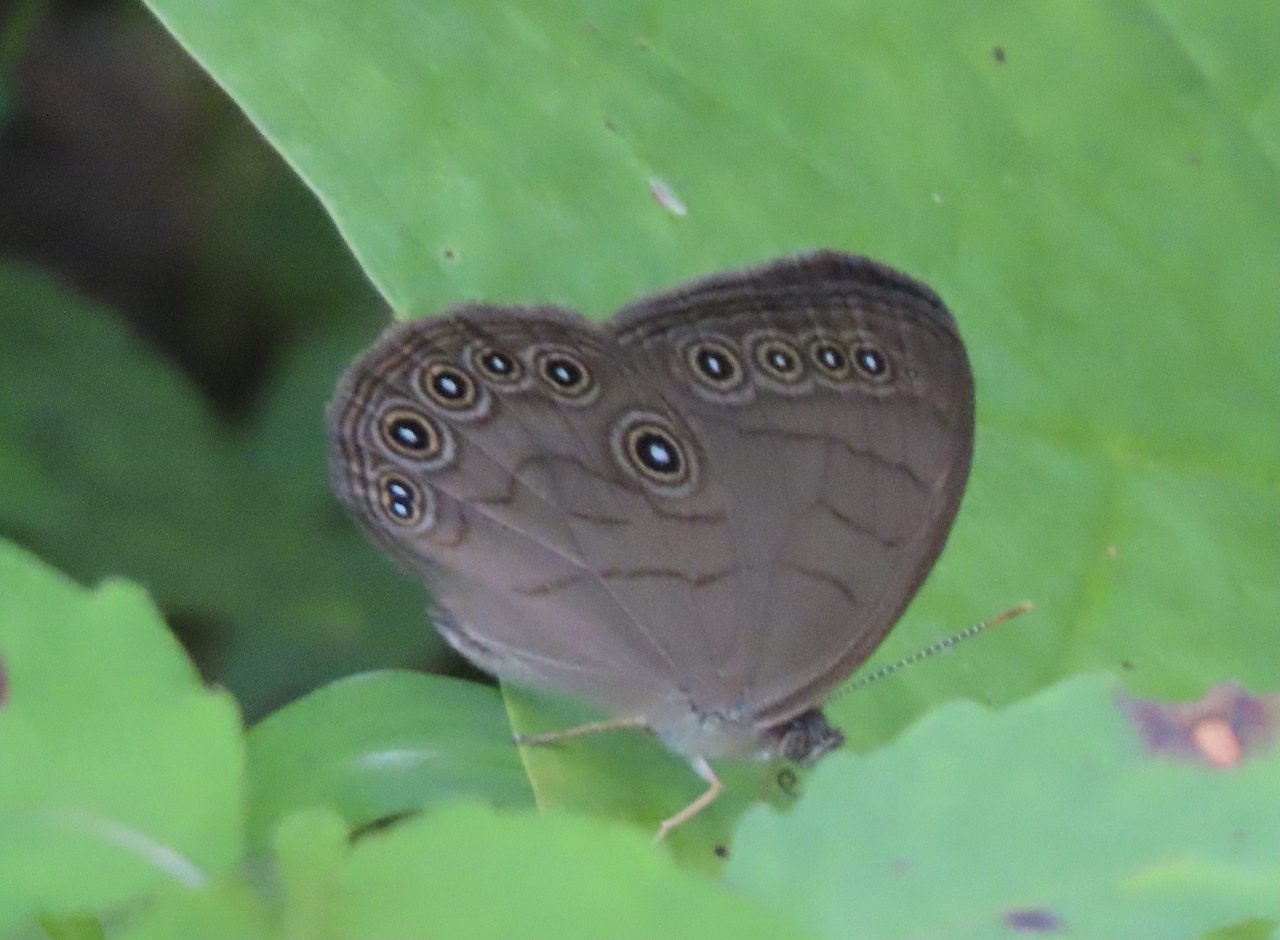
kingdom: Animalia
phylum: Arthropoda
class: Insecta
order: Lepidoptera
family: Nymphalidae
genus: Lethe
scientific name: Lethe eurydice
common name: Appalachian Eyed Brown
